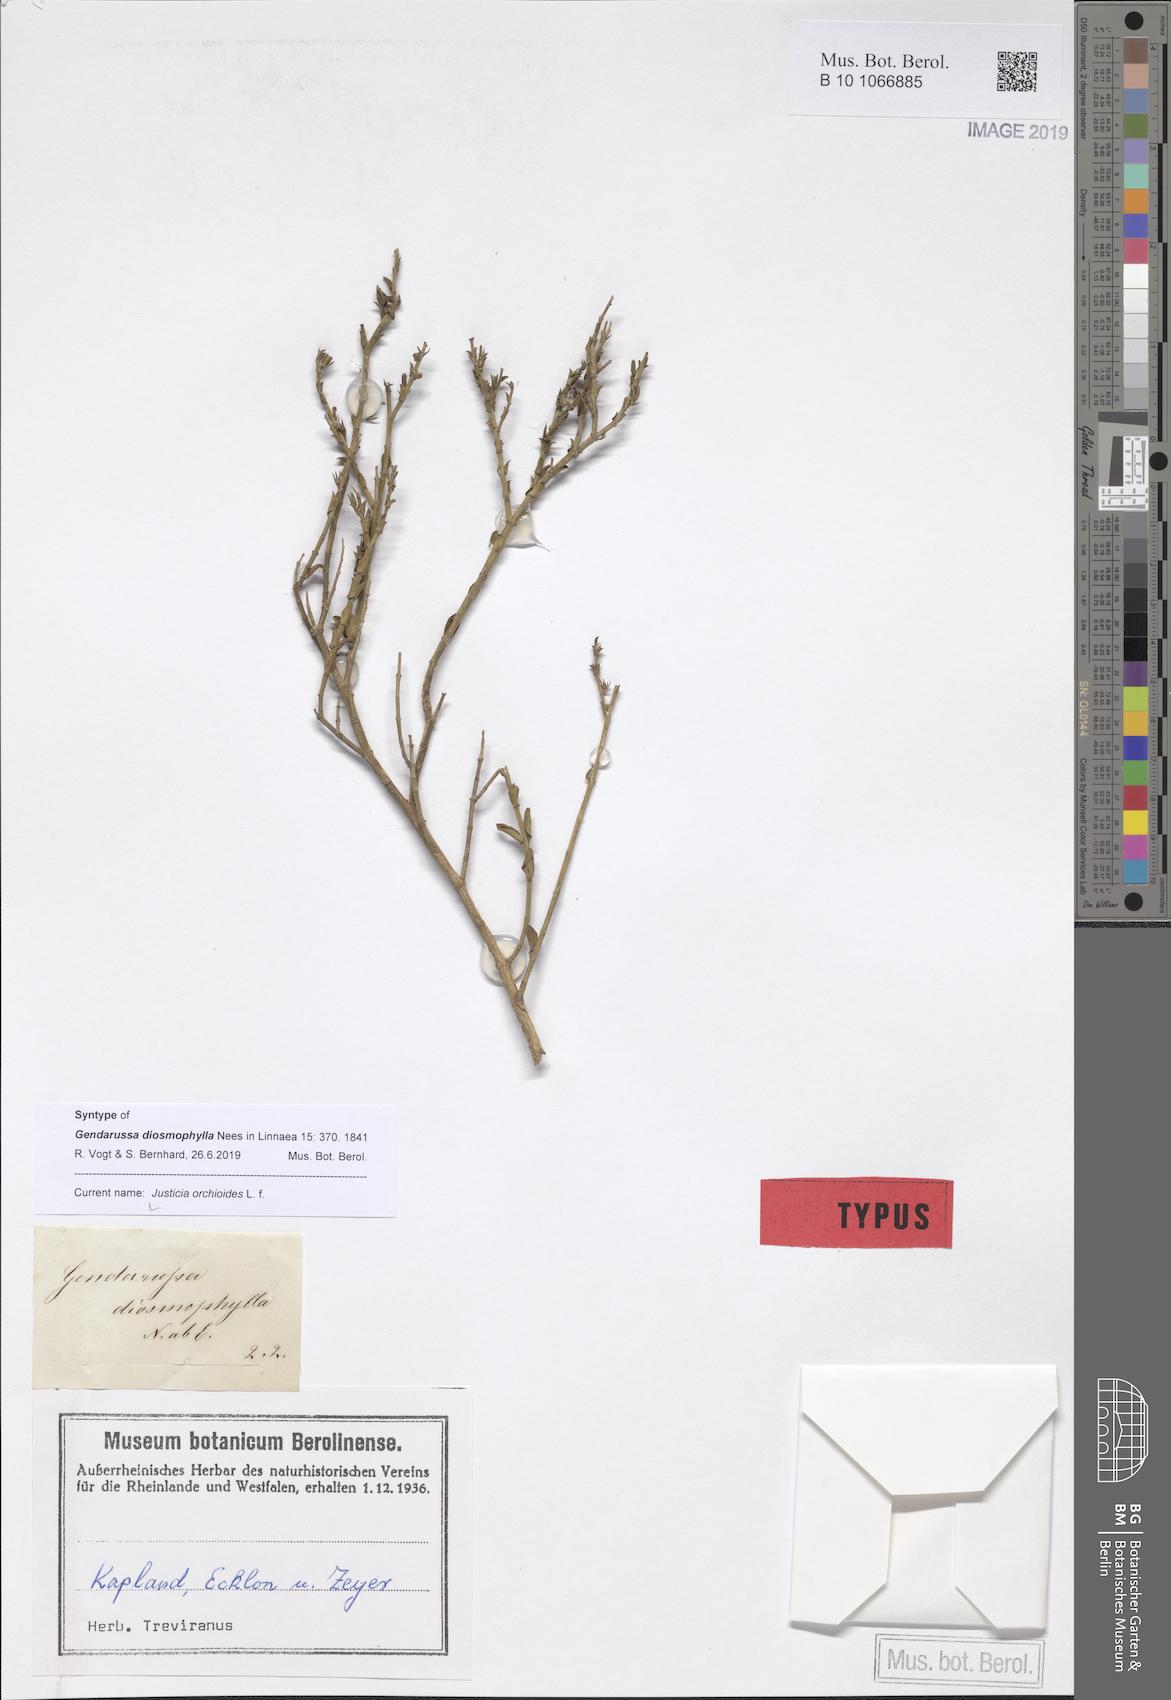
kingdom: Plantae
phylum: Tracheophyta
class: Magnoliopsida
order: Lamiales
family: Acanthaceae
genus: Justicia
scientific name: Justicia orchioides
